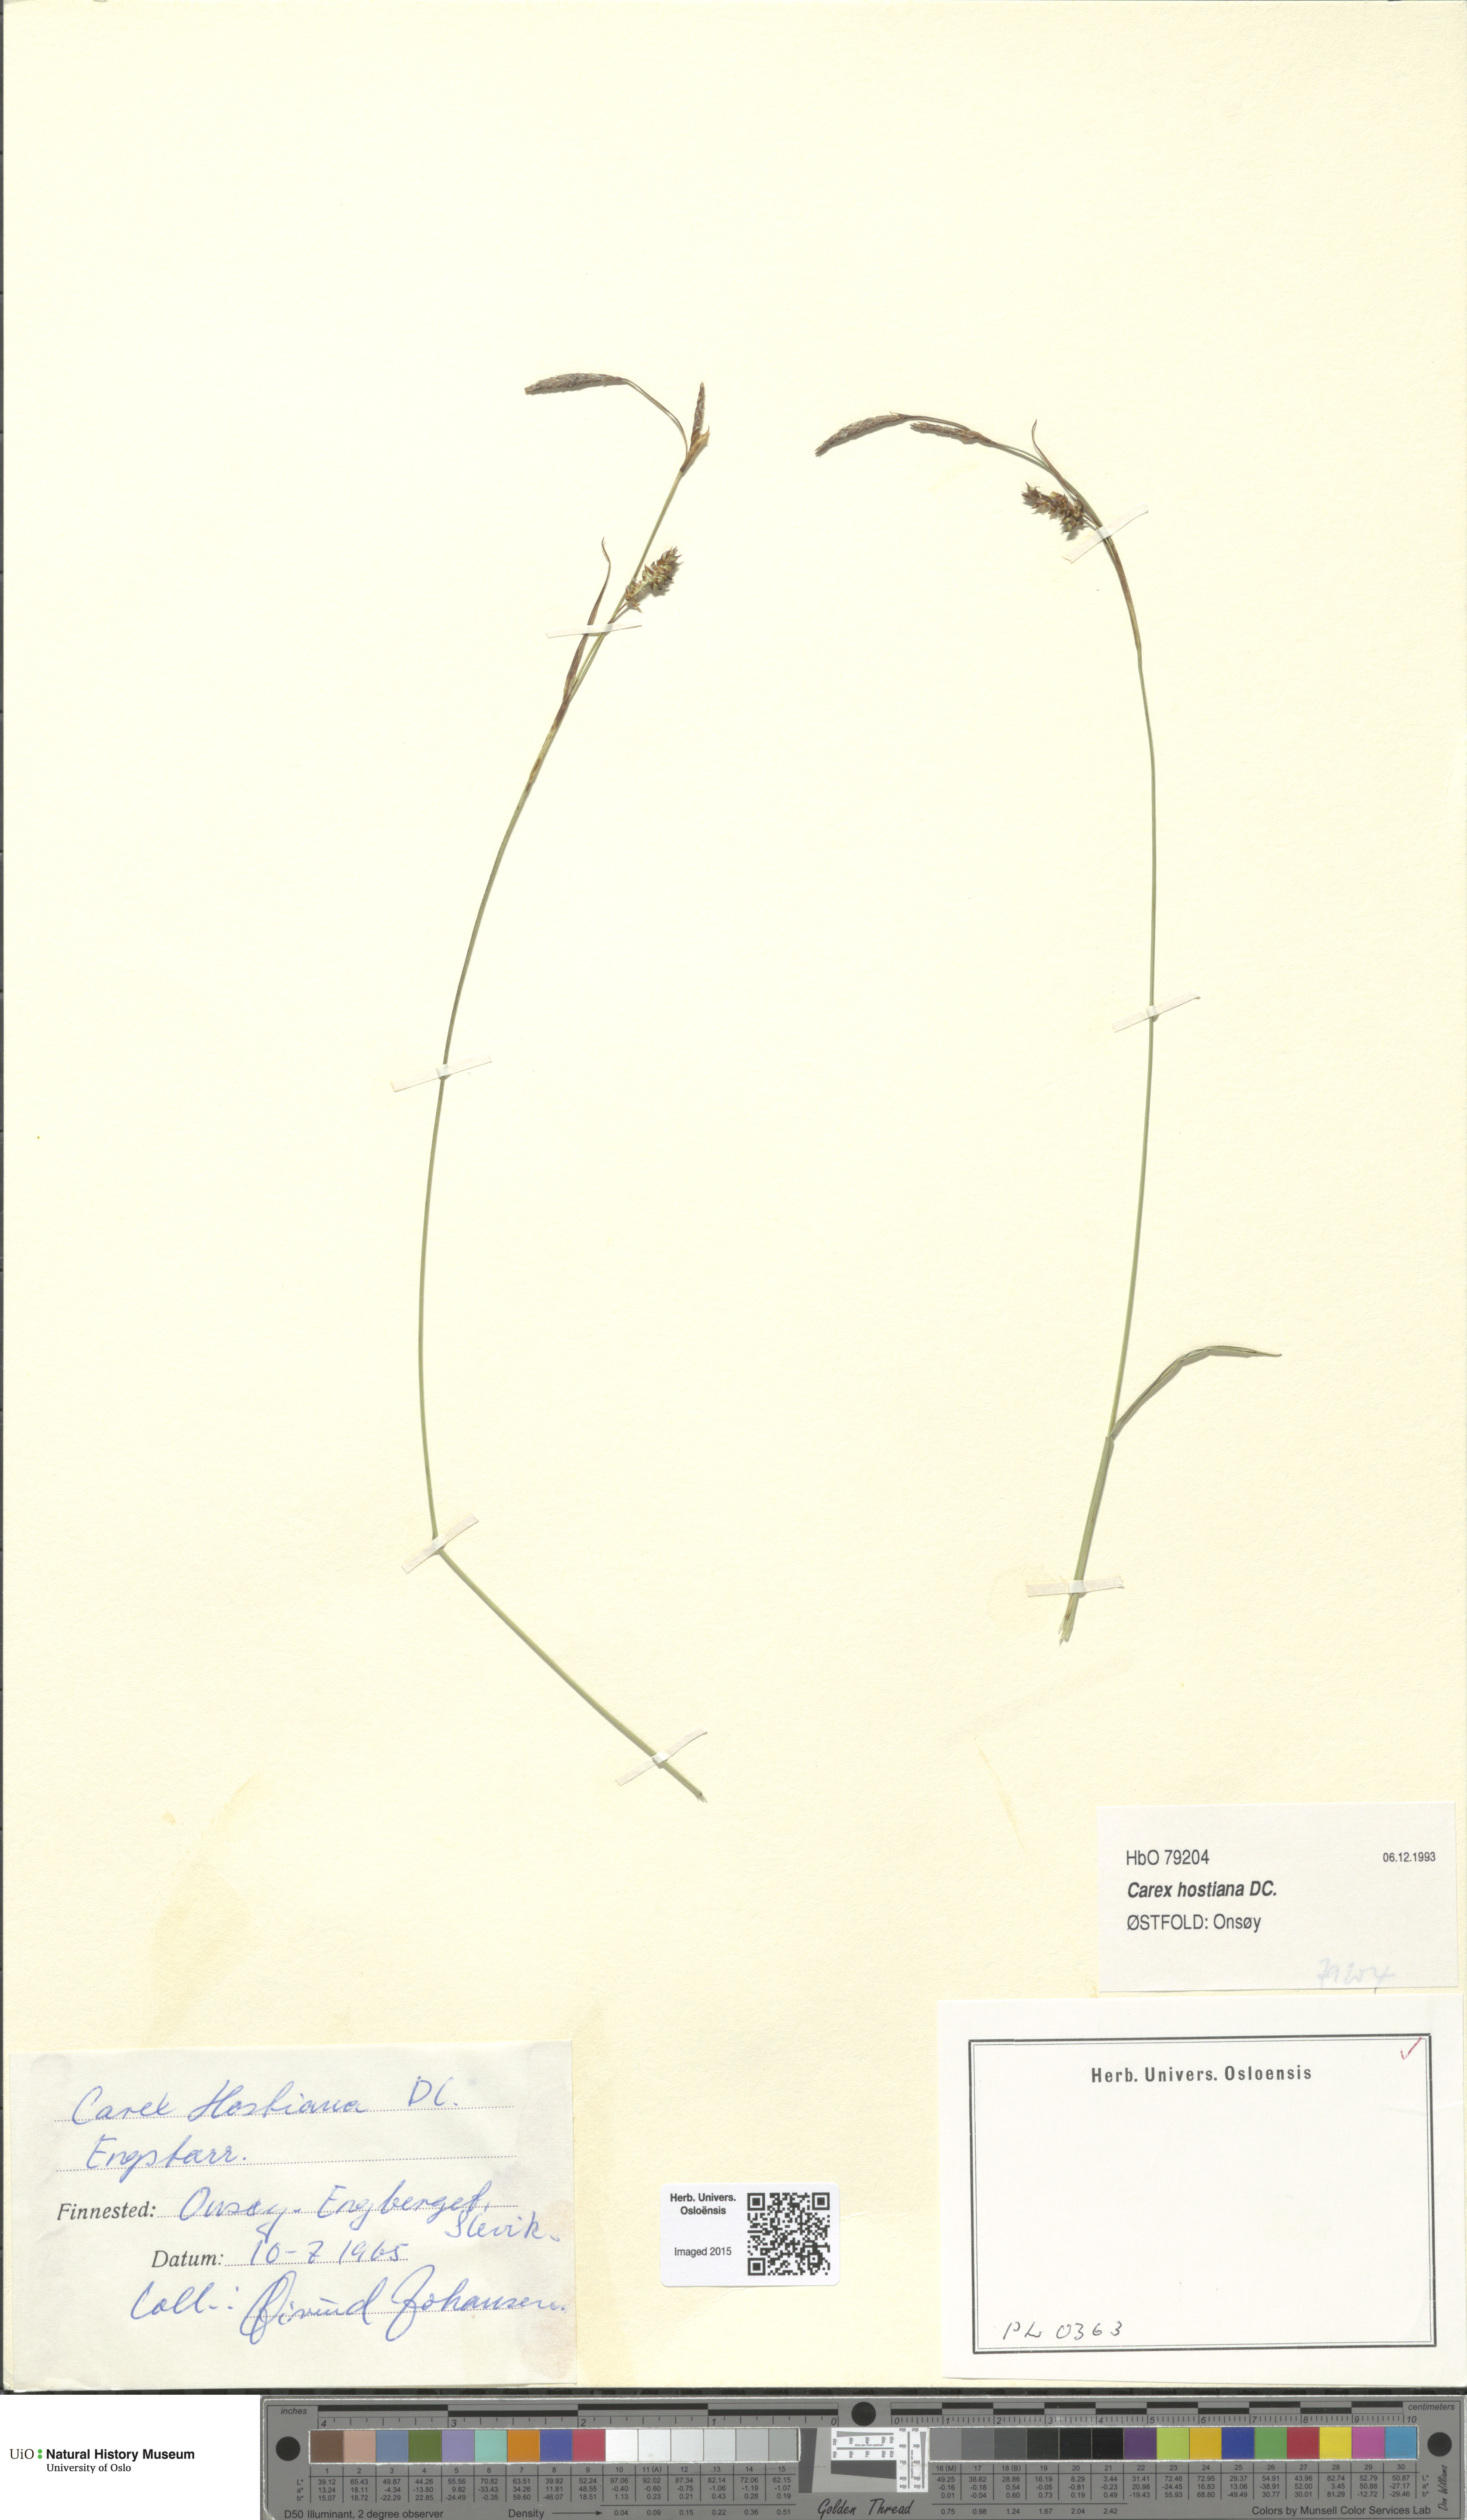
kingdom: Plantae
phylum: Tracheophyta
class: Liliopsida
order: Poales
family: Cyperaceae
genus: Carex
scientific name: Carex hostiana
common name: Tawny sedge
